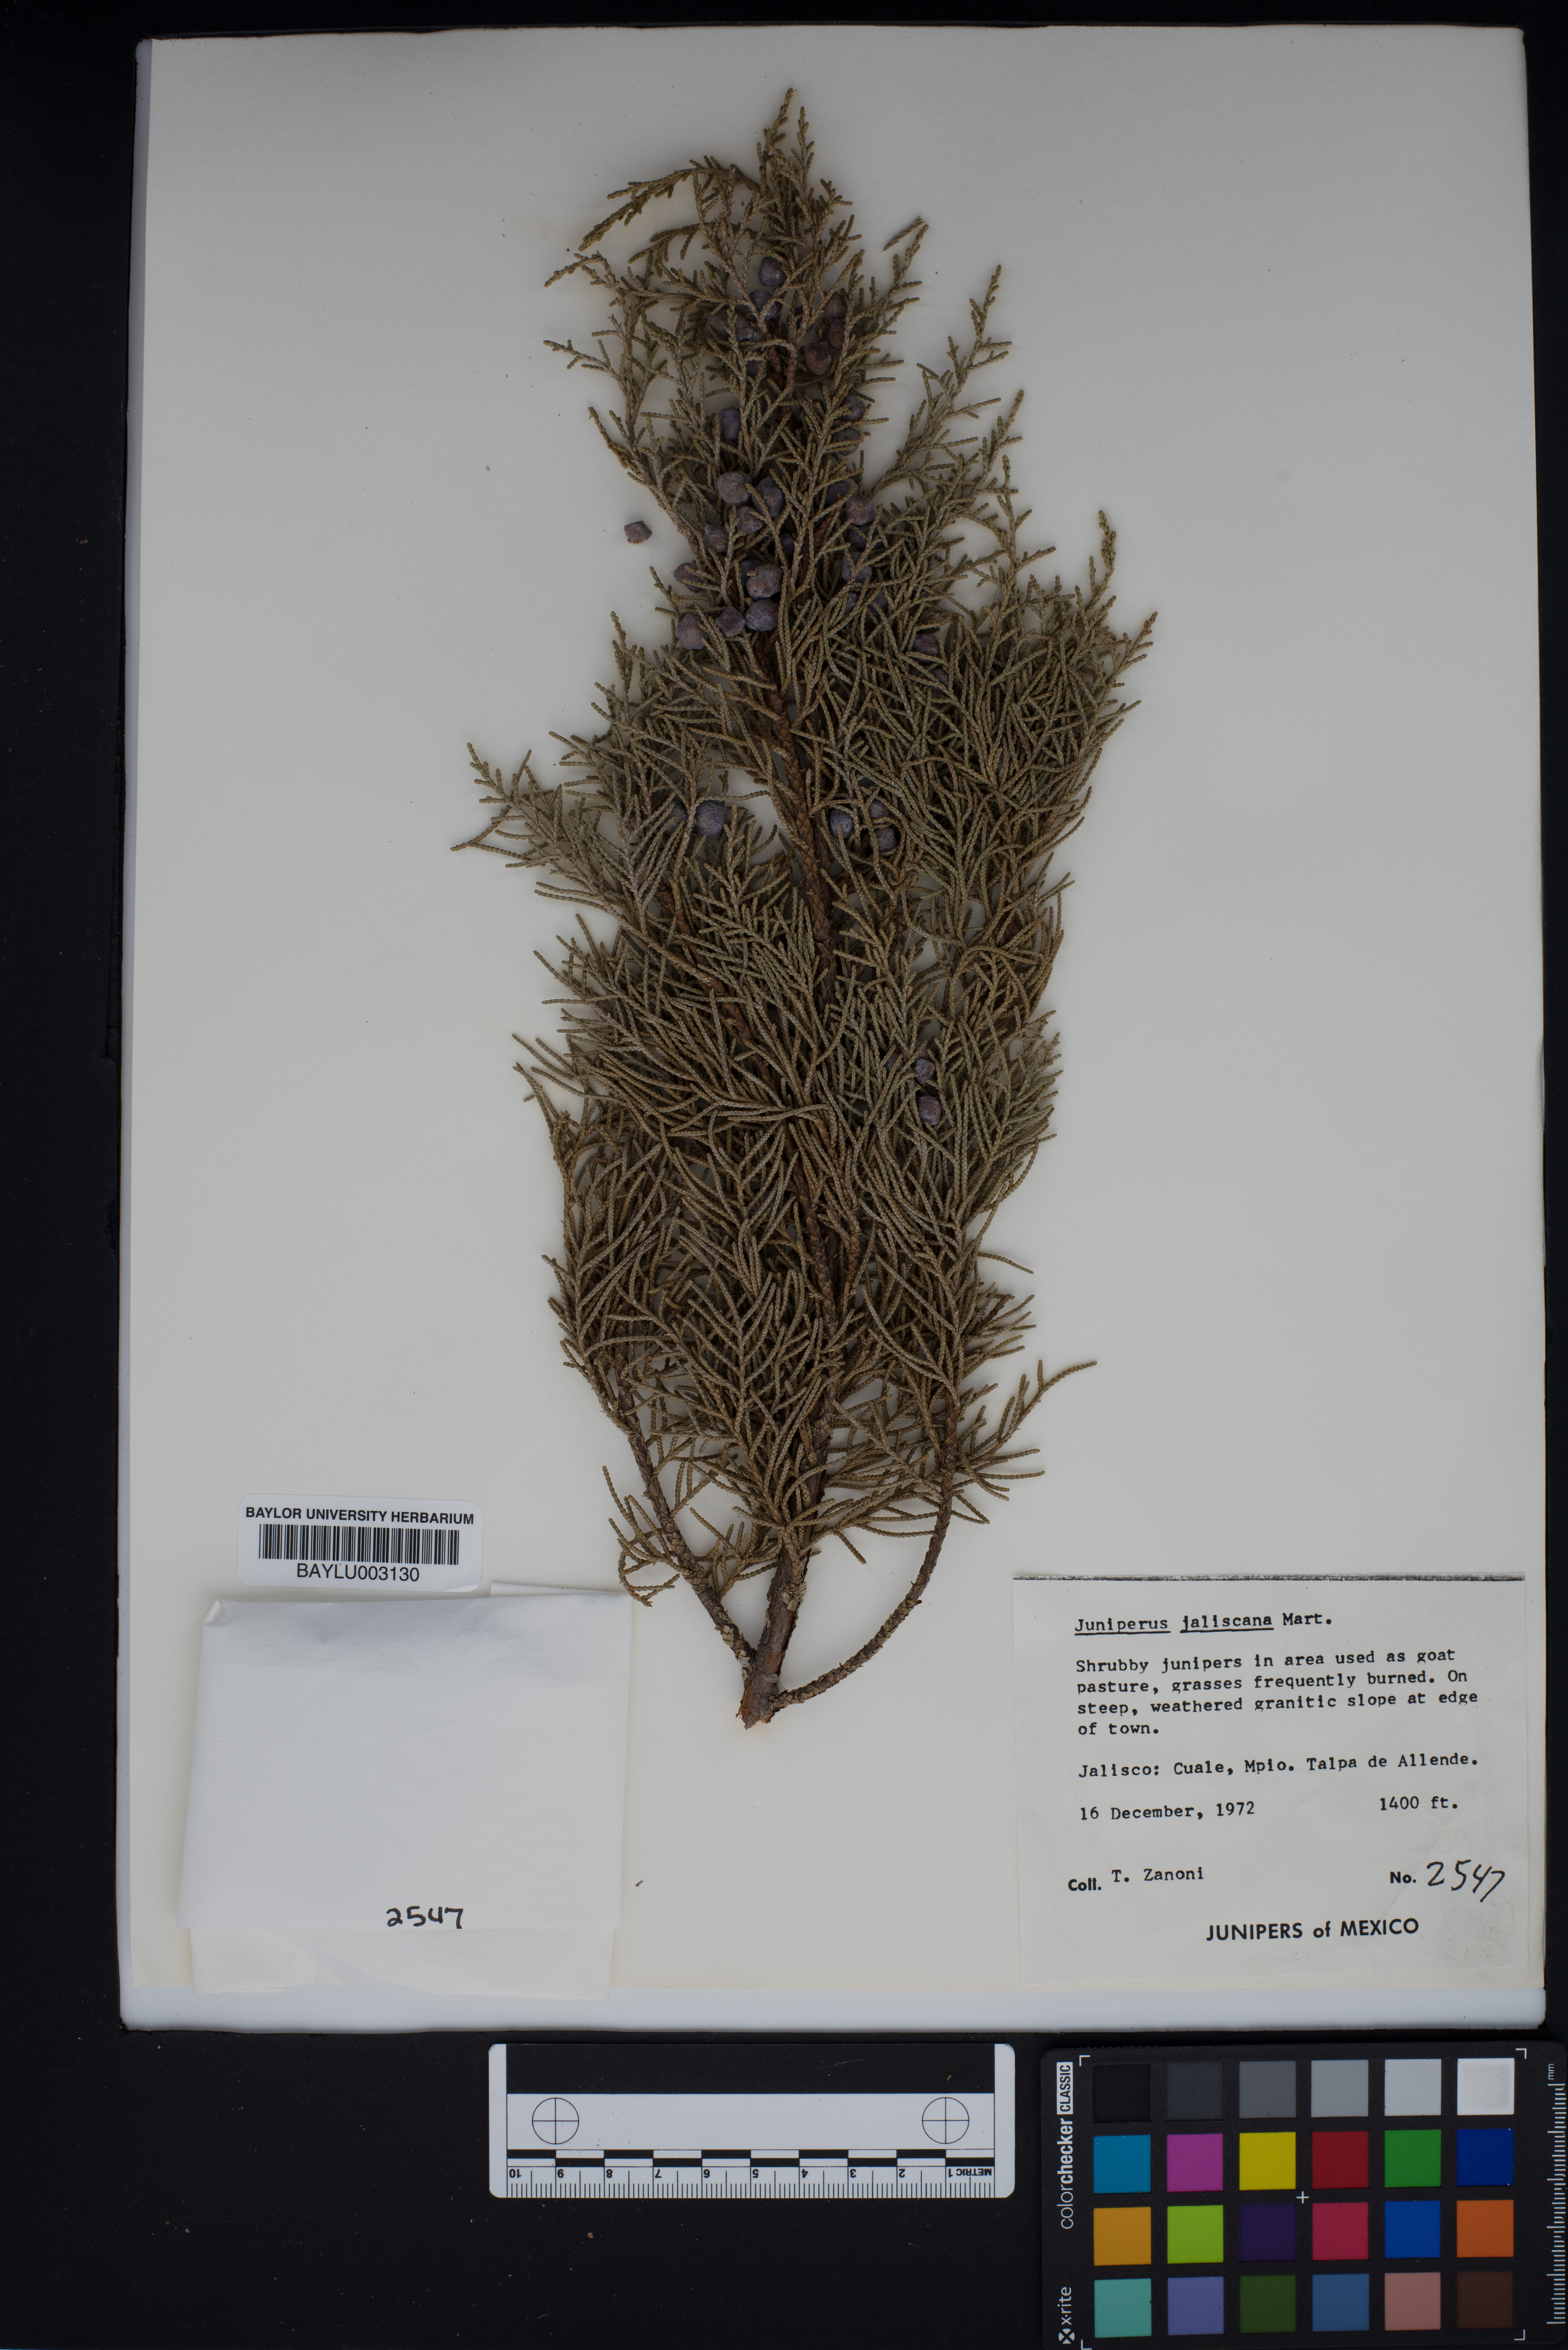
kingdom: Plantae
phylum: Tracheophyta
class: Pinopsida
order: Pinales
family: Cupressaceae
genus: Juniperus
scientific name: Juniperus jaliscana
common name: Jalisco juniper
